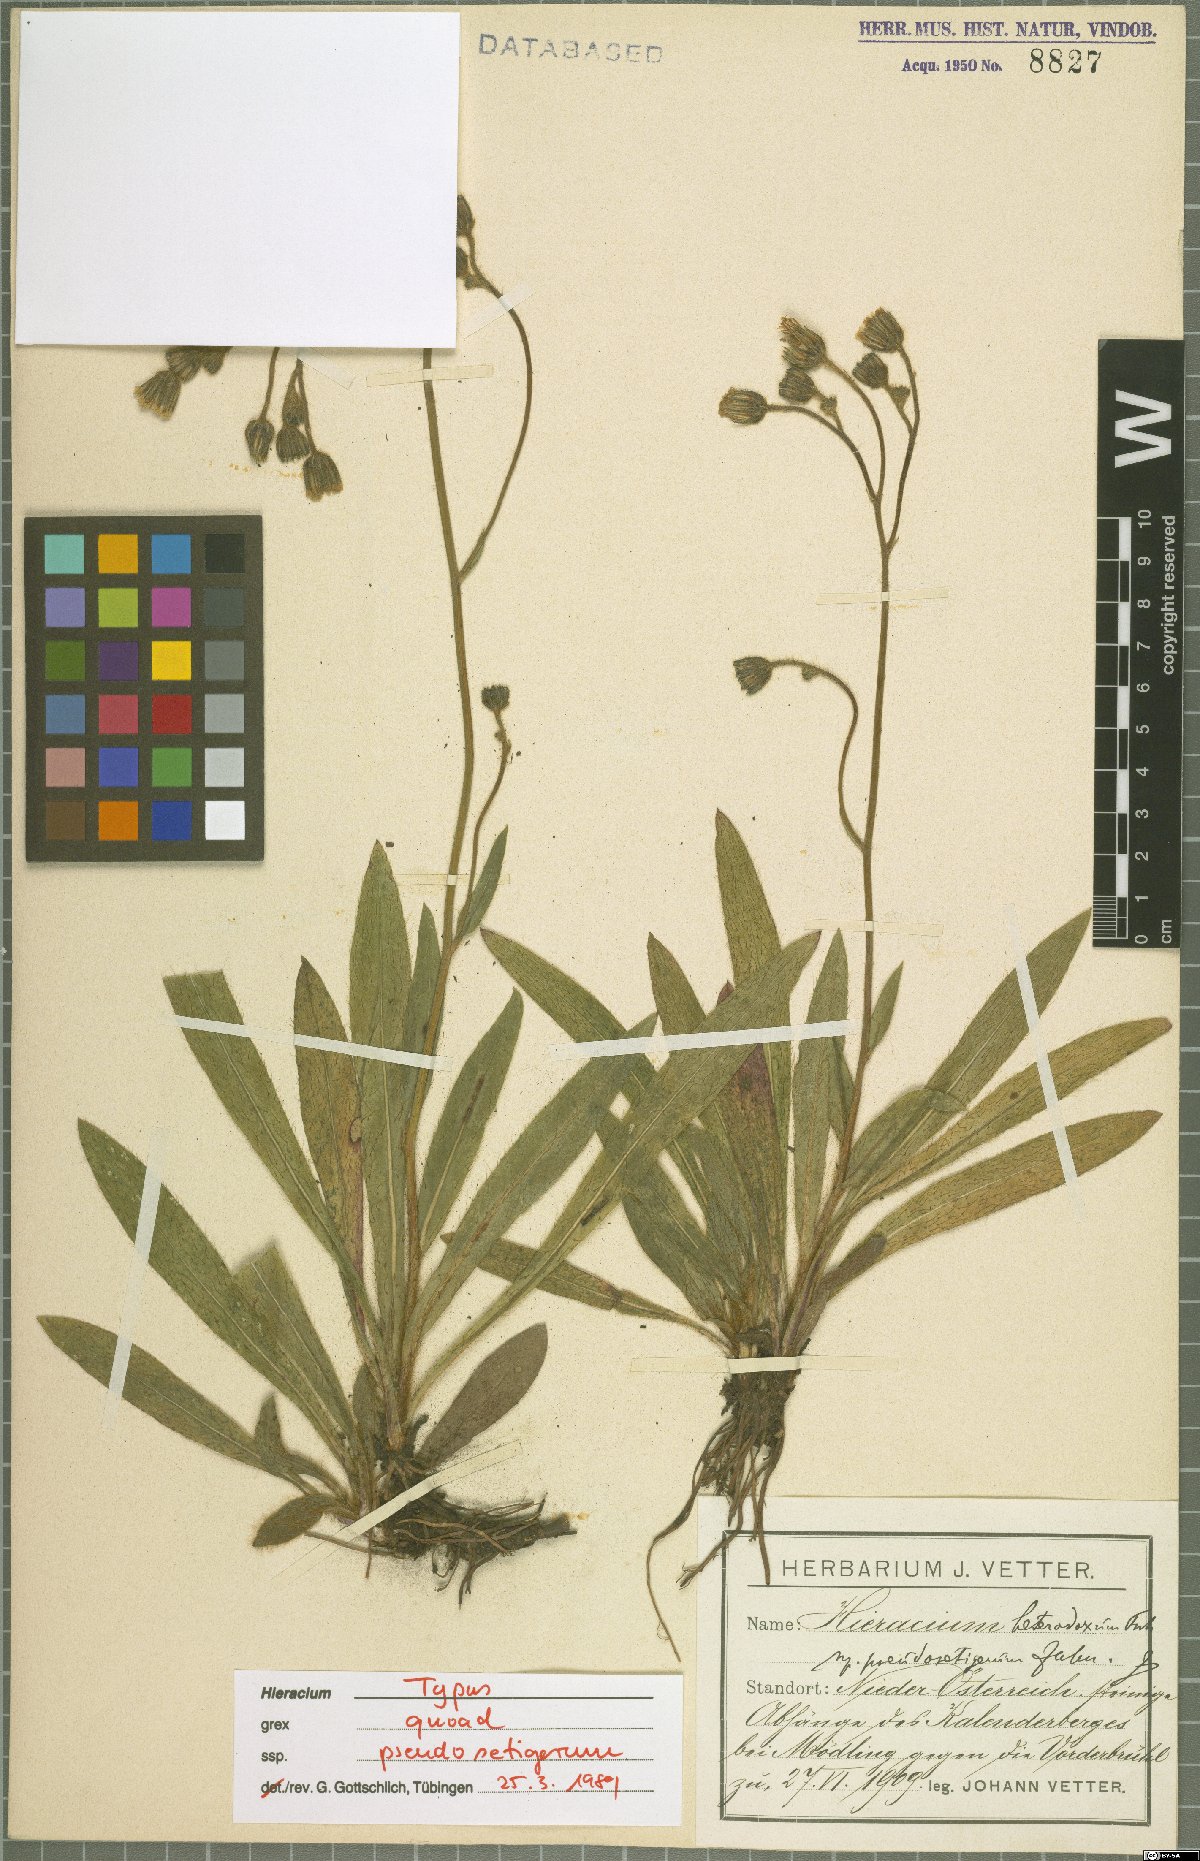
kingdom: Plantae
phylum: Tracheophyta
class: Magnoliopsida
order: Asterales
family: Asteraceae
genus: Pilosella
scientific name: Pilosella heterodoxa
